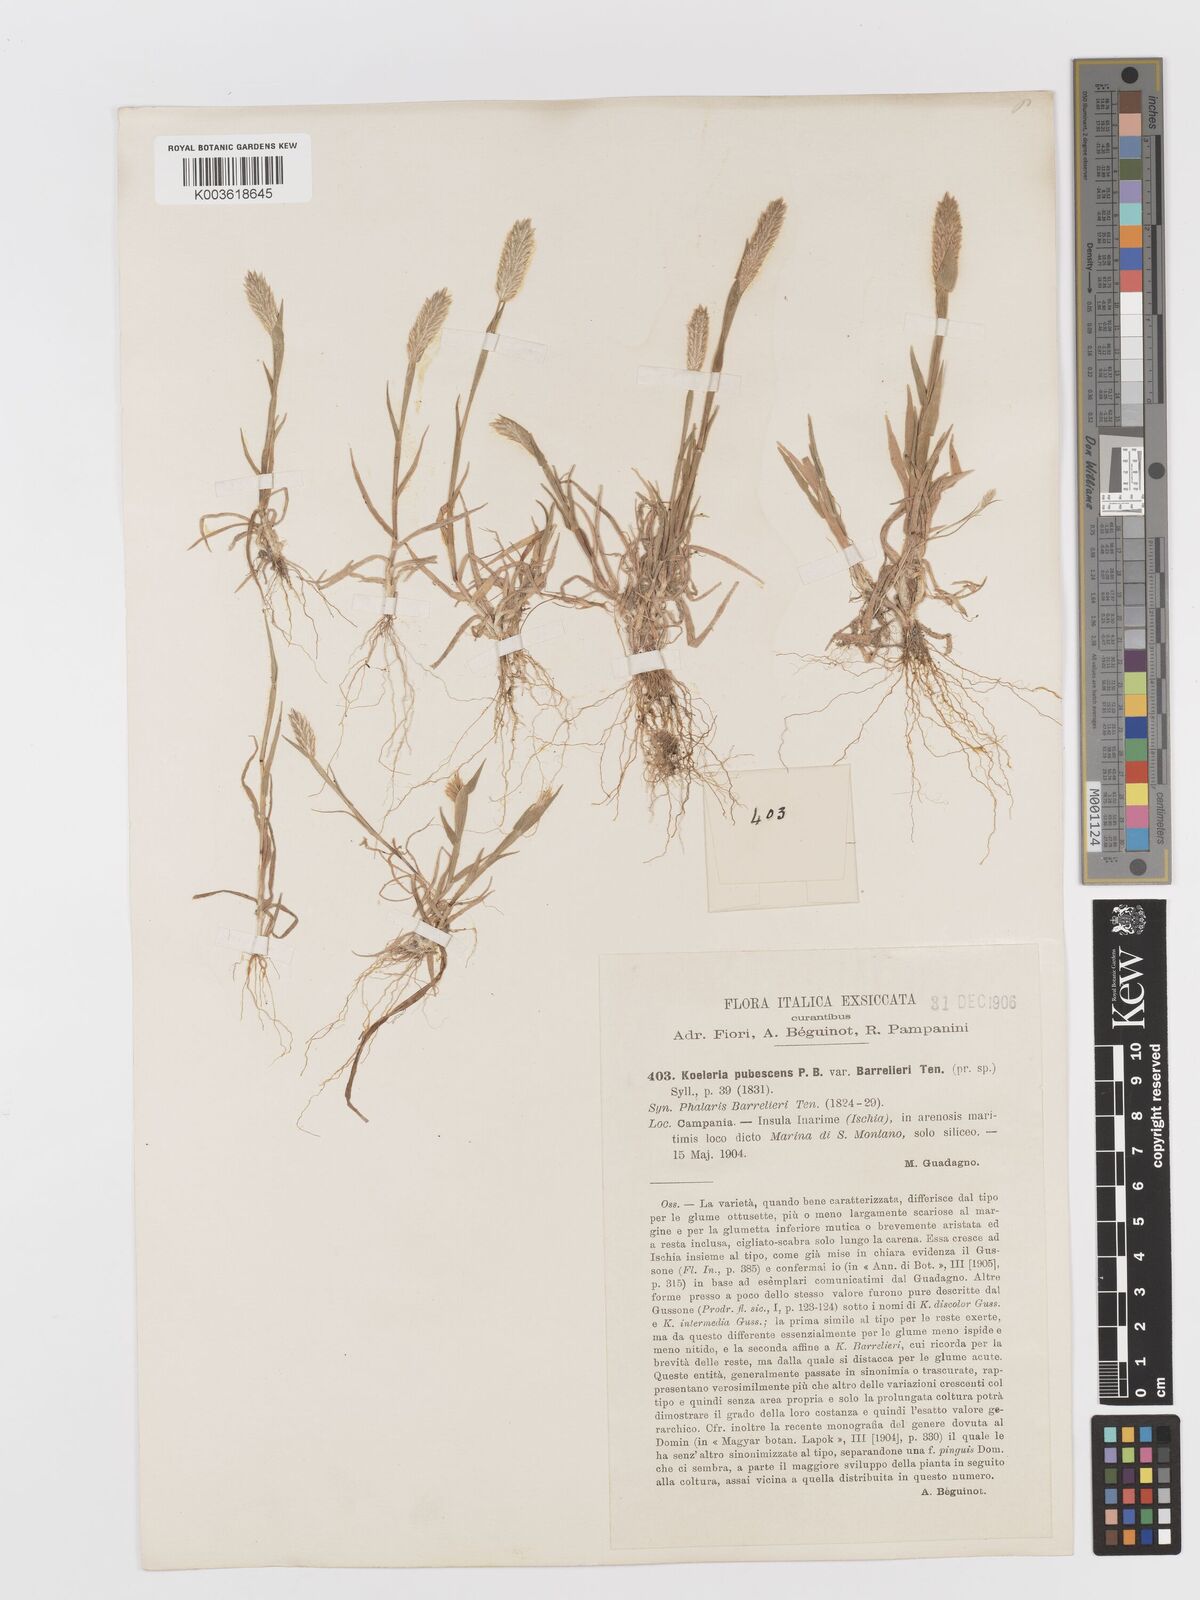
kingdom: Plantae
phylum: Tracheophyta
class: Liliopsida
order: Poales
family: Poaceae
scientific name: Poaceae
